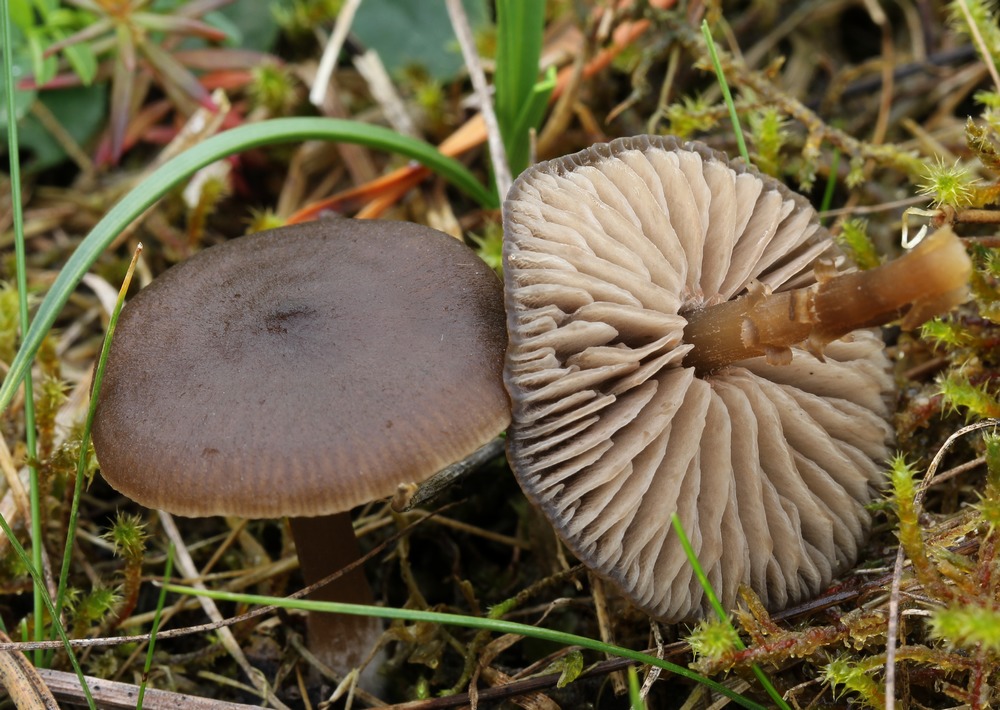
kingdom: Fungi
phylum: Basidiomycota
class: Agaricomycetes
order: Agaricales
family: Entolomataceae
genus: Entoloma
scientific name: Entoloma sericeum
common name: silkeglinsende rødblad
